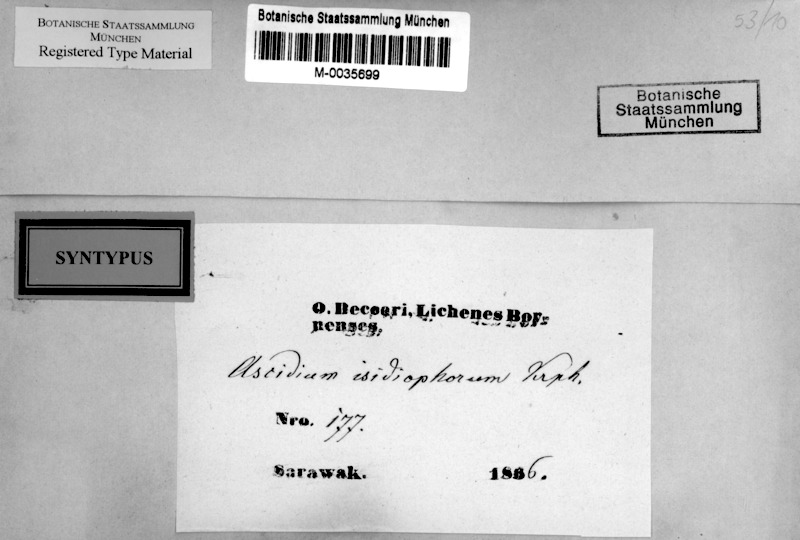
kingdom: Fungi
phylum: Ascomycota
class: Lecanoromycetes
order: Ostropales
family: Graphidaceae
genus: Thelotrema
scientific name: Thelotrema isidiophorum
